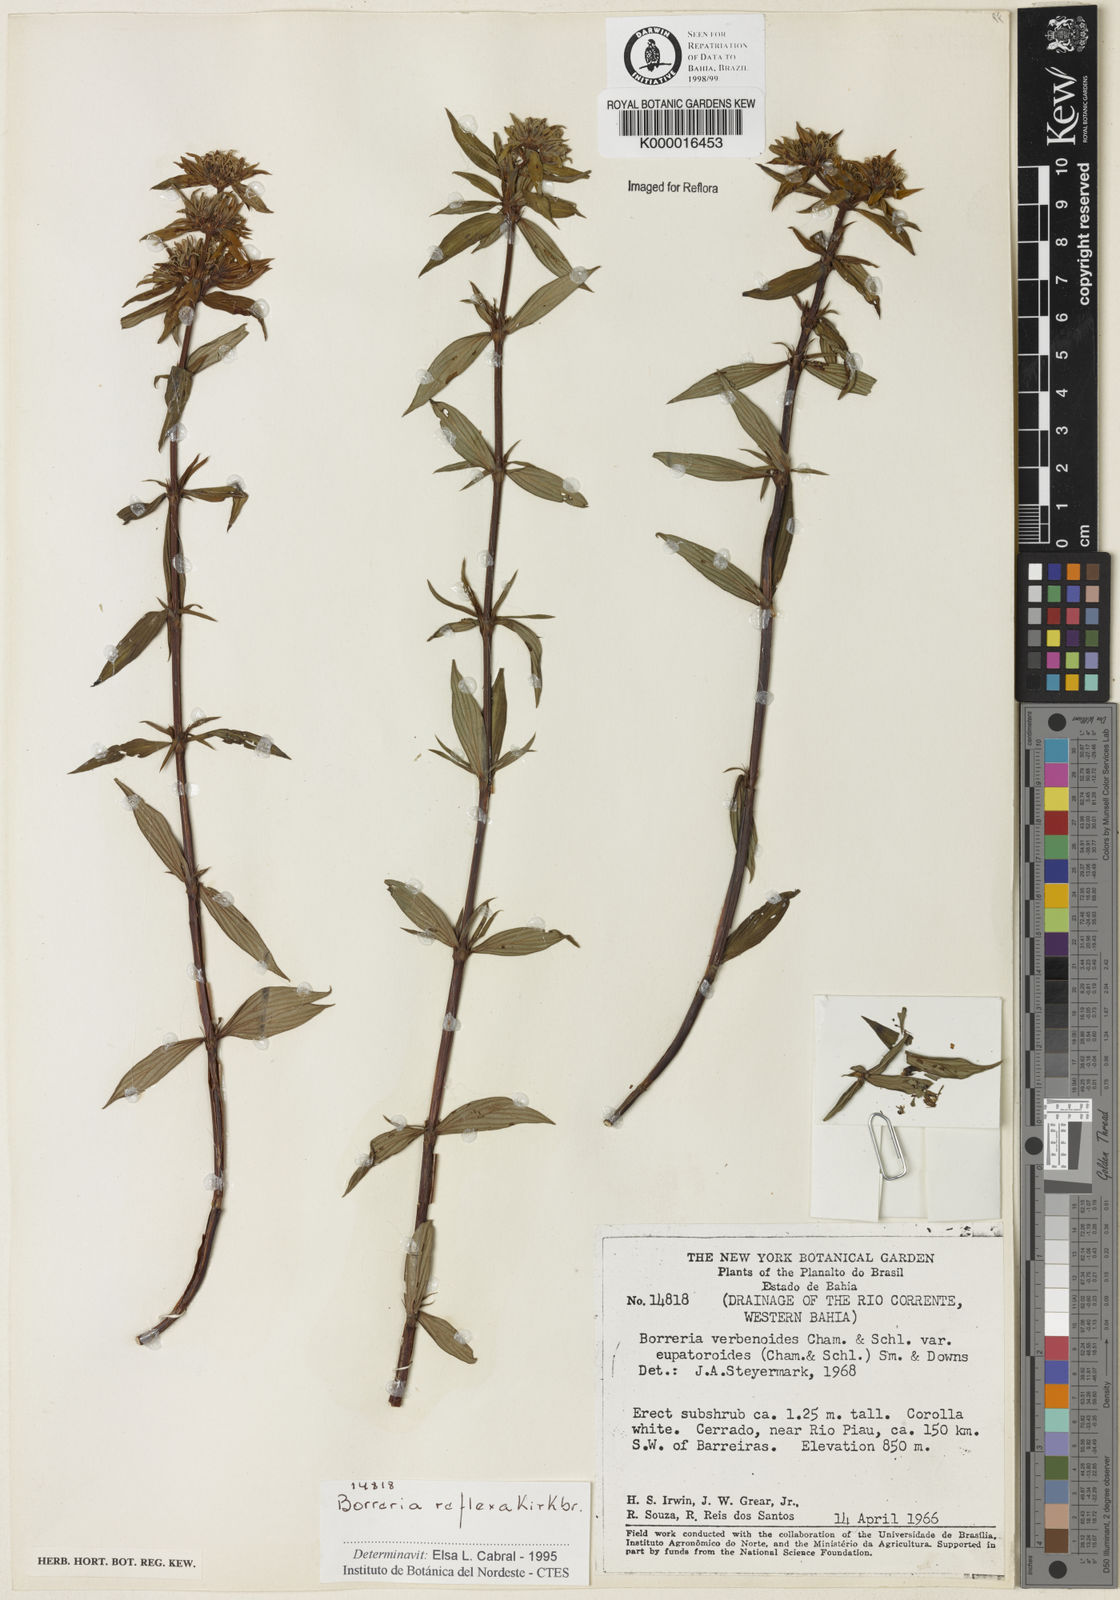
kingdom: Plantae
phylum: Tracheophyta
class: Magnoliopsida
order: Gentianales
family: Rubiaceae
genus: Spermacoce
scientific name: Spermacoce reflexa
